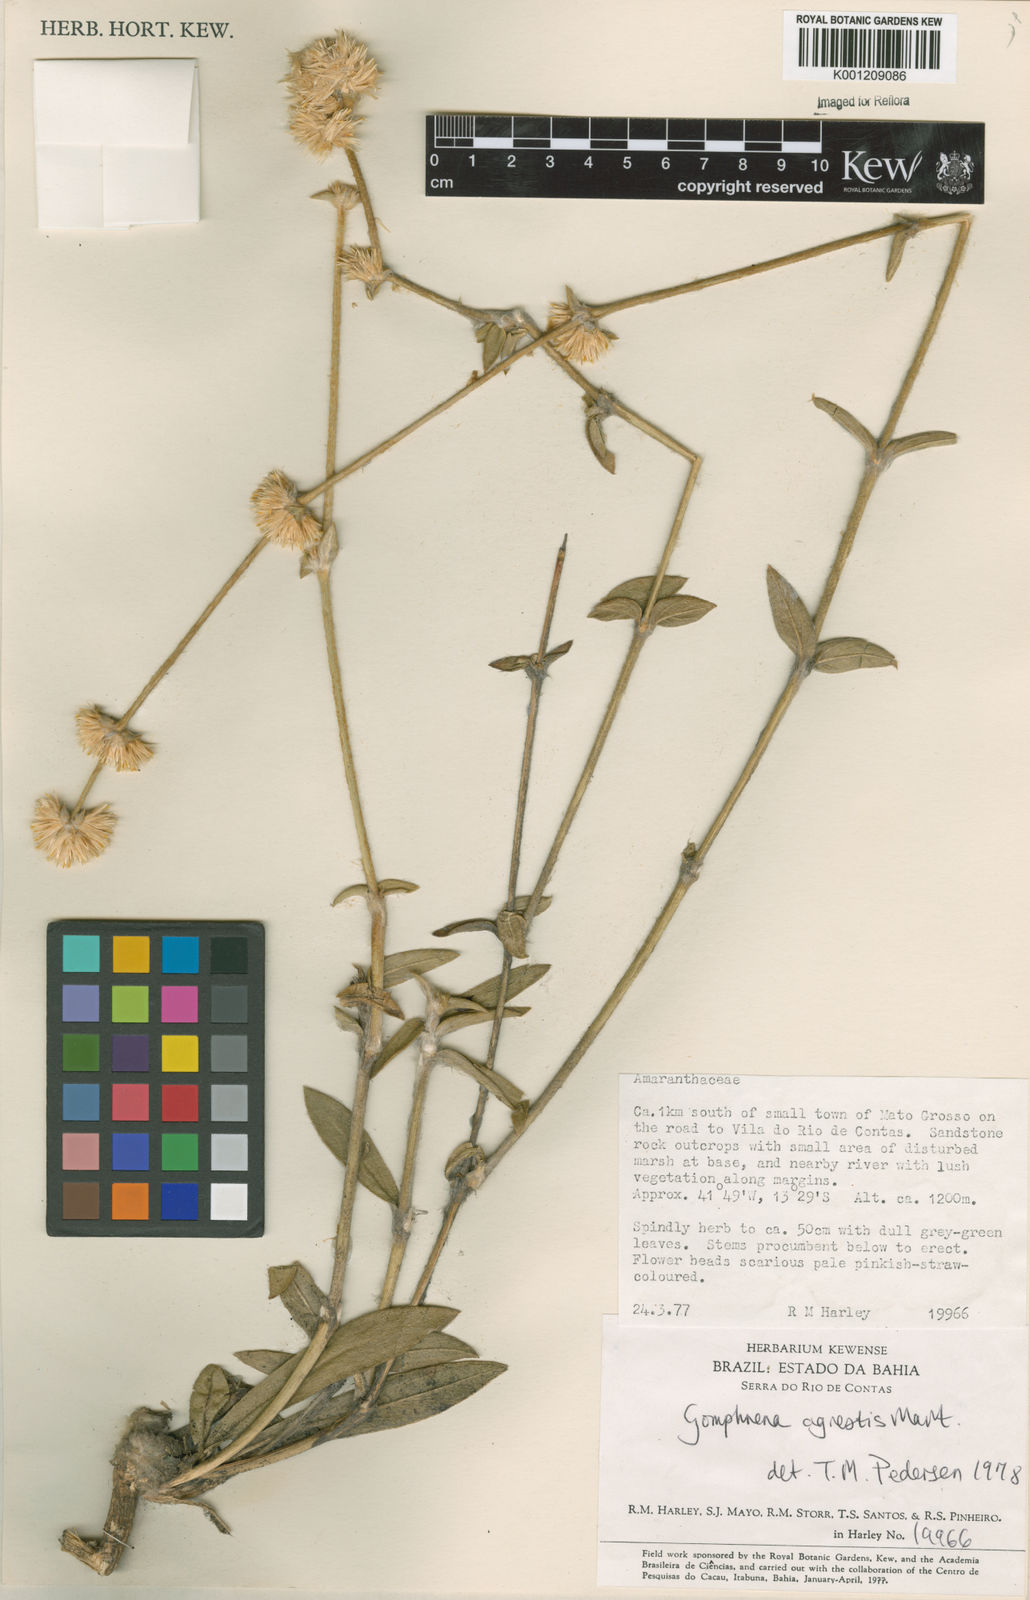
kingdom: Plantae
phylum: Tracheophyta
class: Magnoliopsida
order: Caryophyllales
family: Amaranthaceae
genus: Gomphrena
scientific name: Gomphrena agrestis
